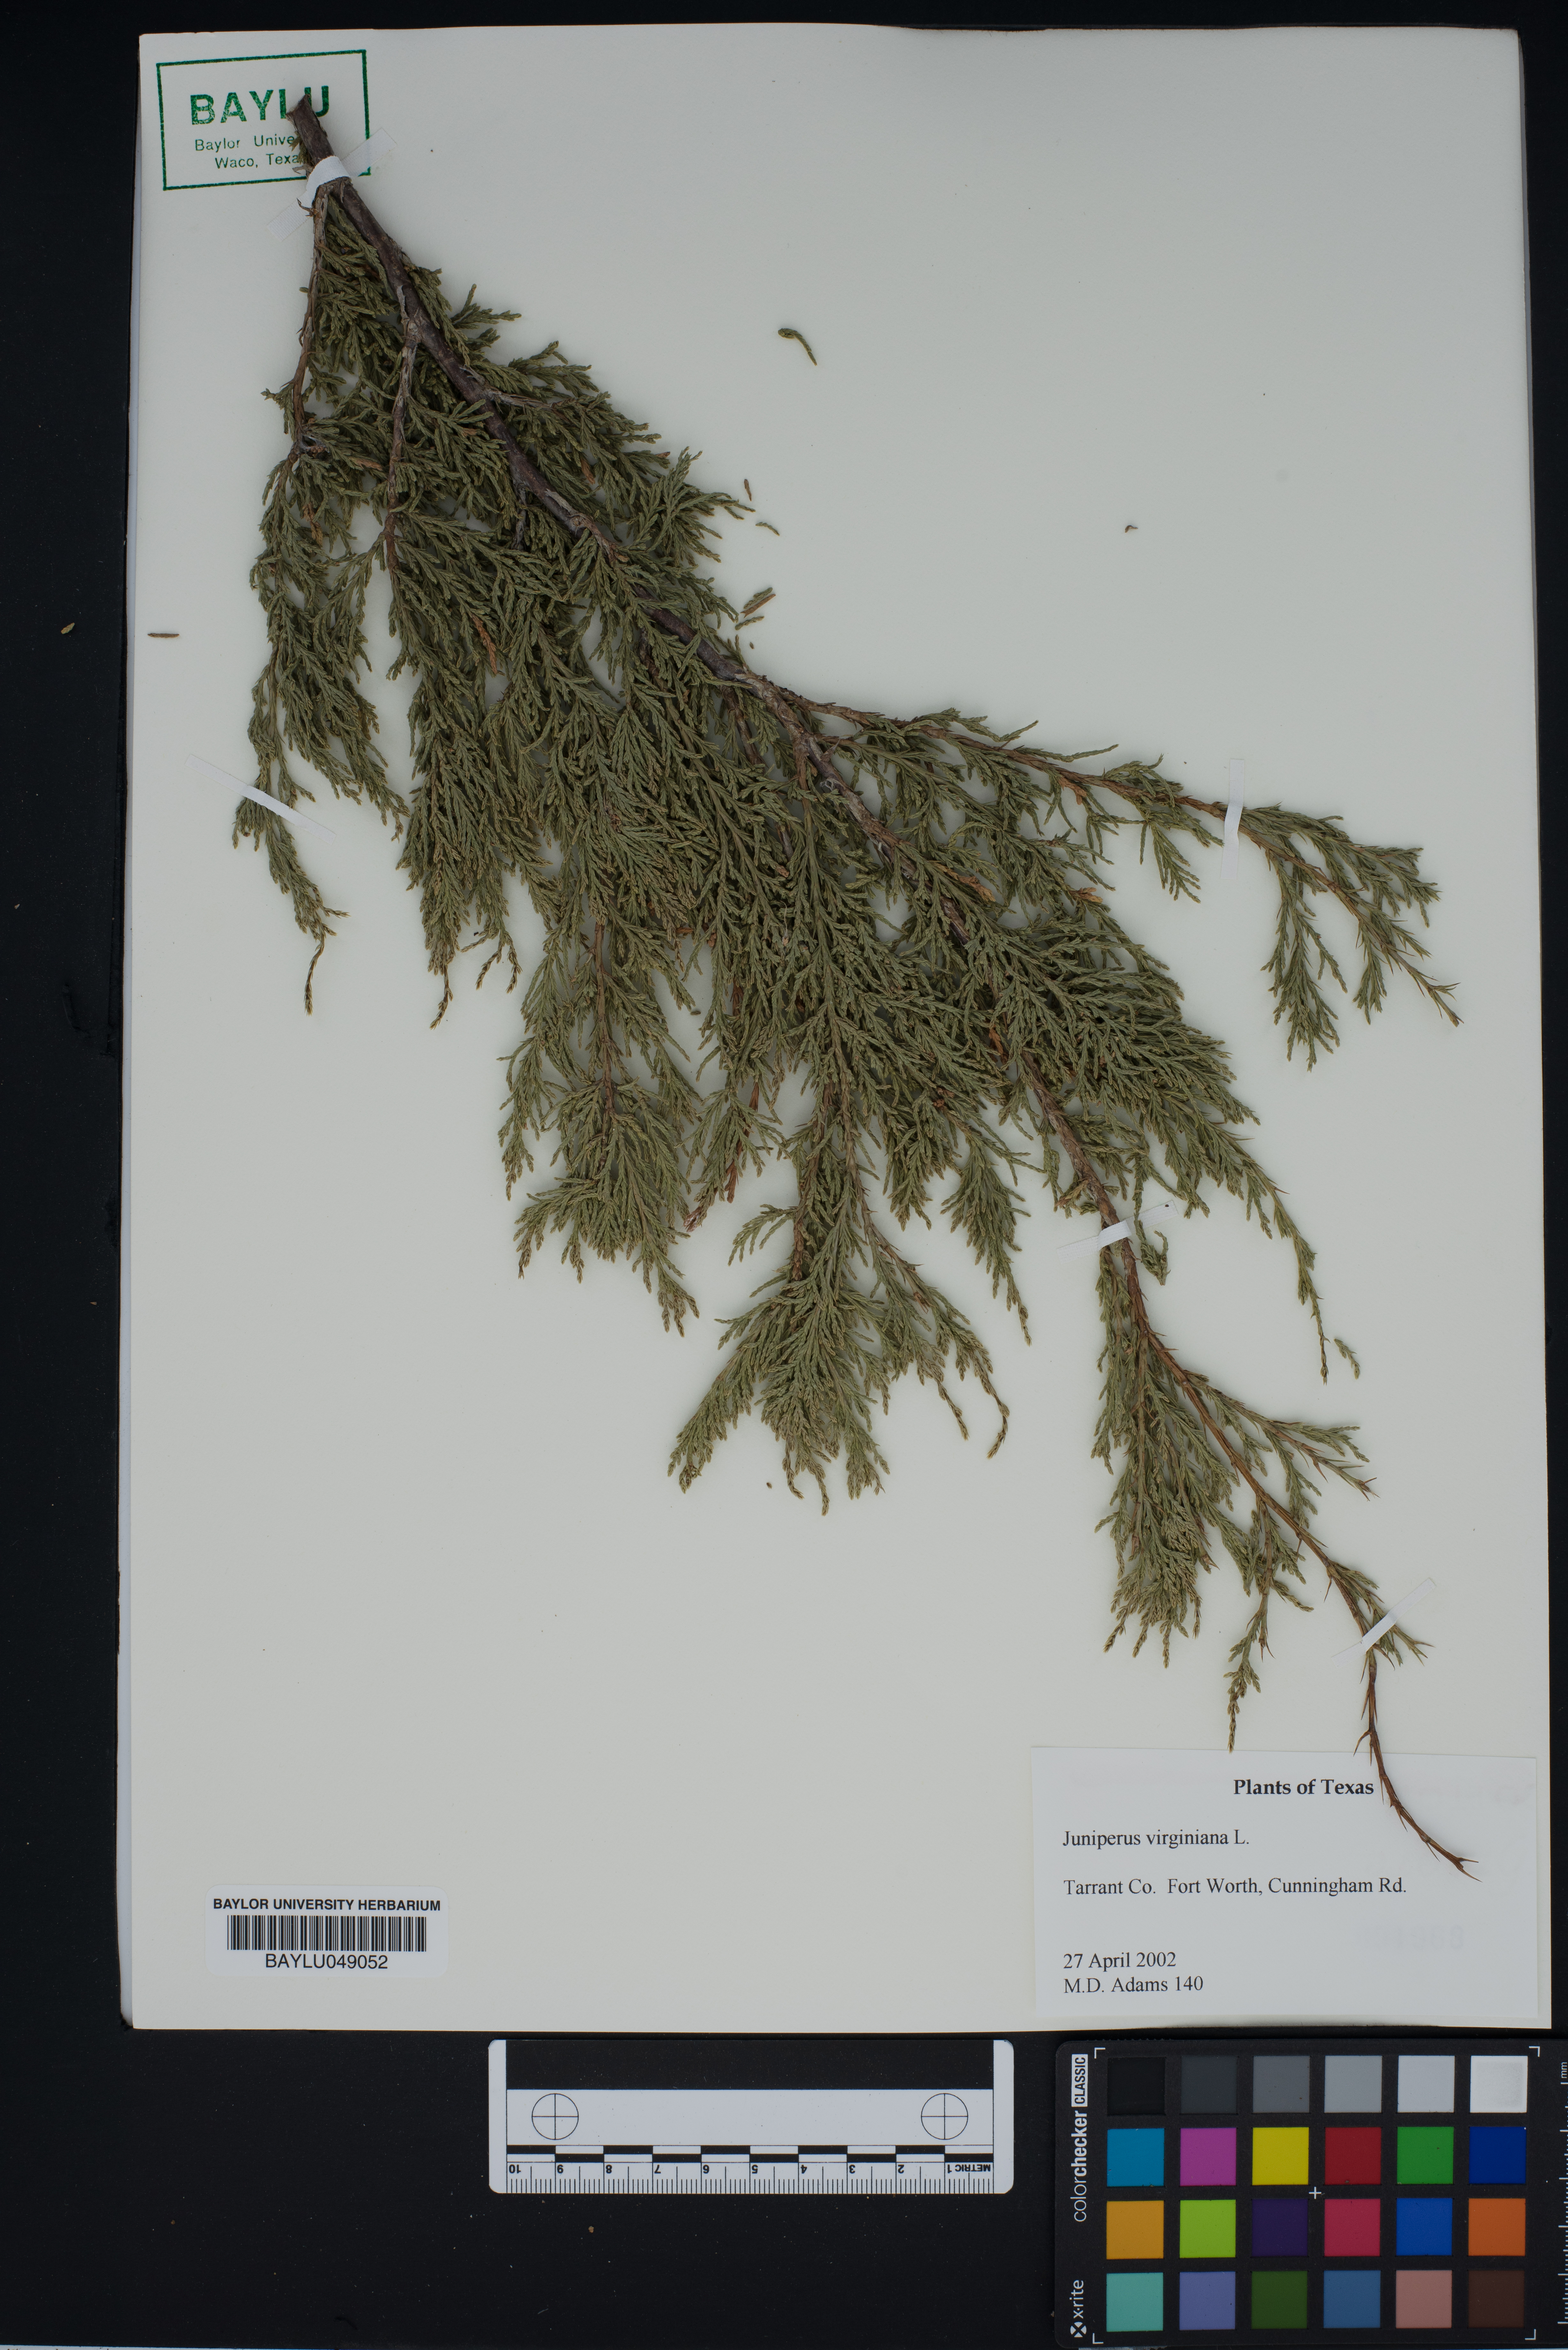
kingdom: Plantae
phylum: Tracheophyta
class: Pinopsida
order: Pinales
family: Cupressaceae
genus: Juniperus
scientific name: Juniperus virginiana
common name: Red juniper
